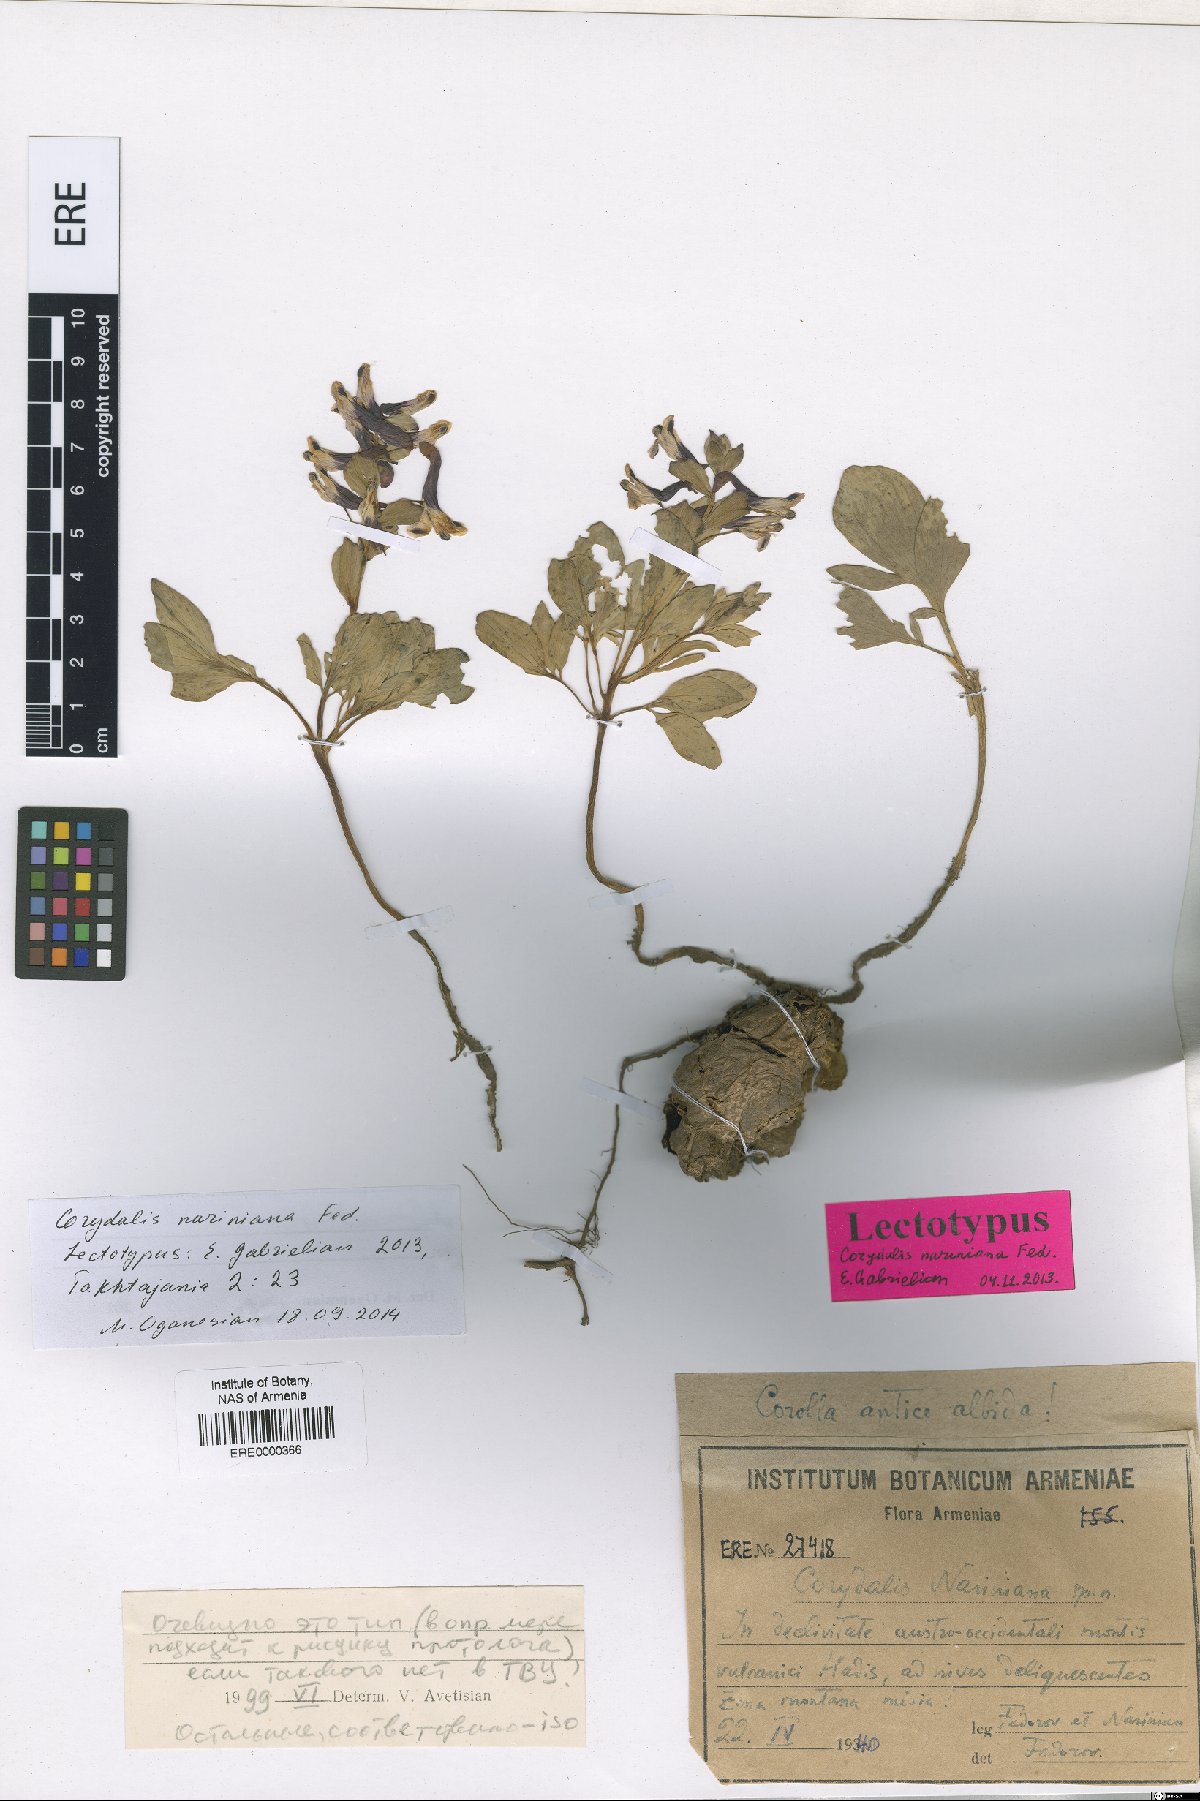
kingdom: Plantae
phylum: Tracheophyta
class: Magnoliopsida
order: Ranunculales
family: Papaveraceae
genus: Corydalis
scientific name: Corydalis nariniana
